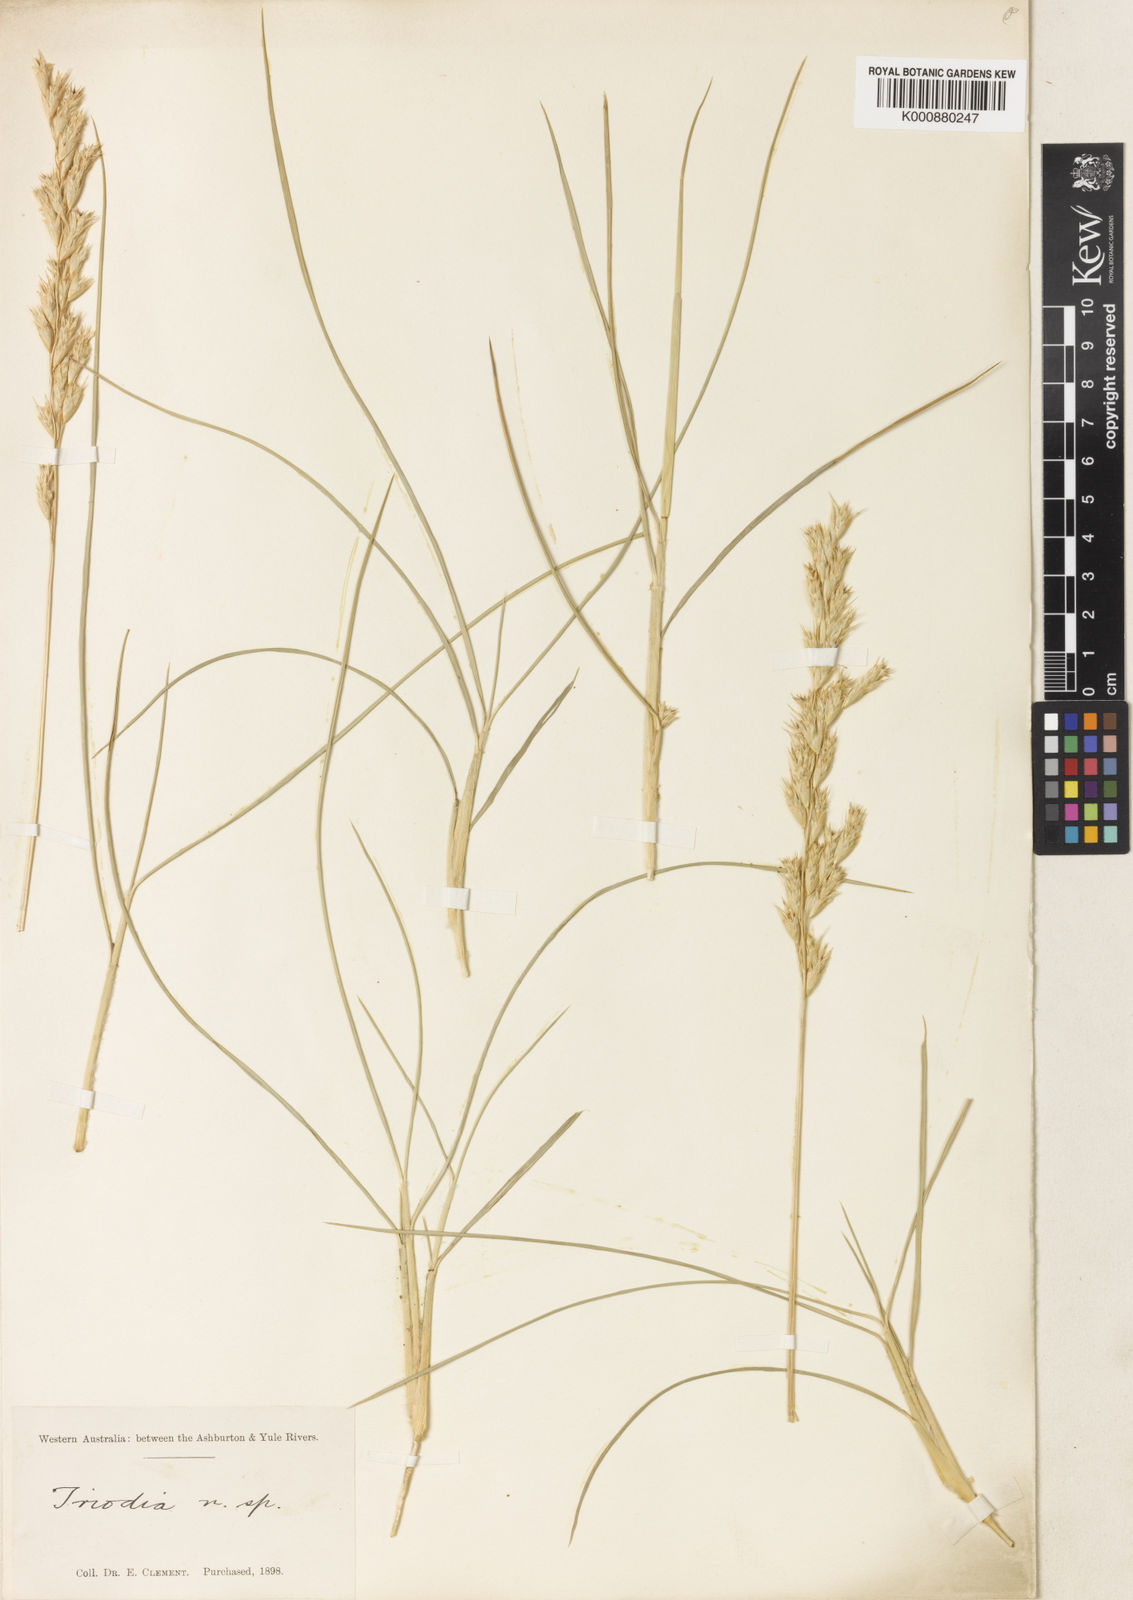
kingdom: Plantae
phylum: Tracheophyta
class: Liliopsida
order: Poales
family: Poaceae
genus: Triodia
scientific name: Triodia lanigera
